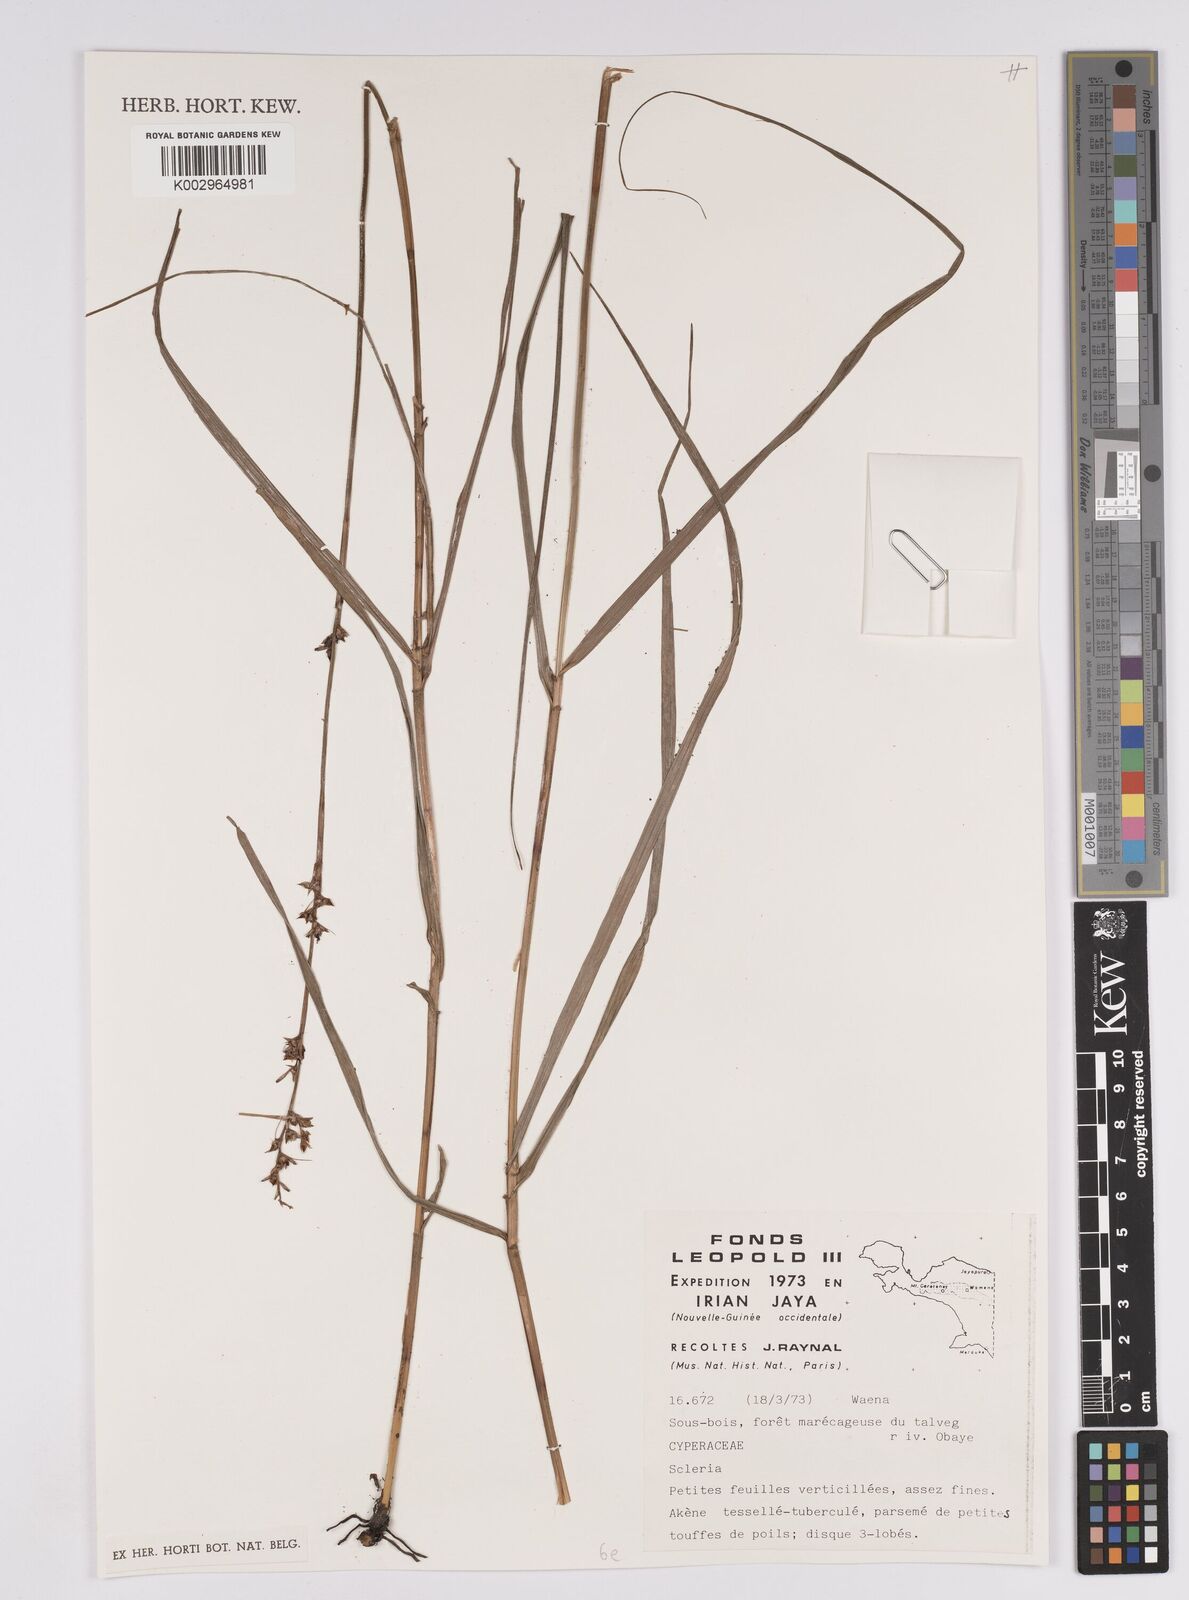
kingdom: Plantae
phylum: Tracheophyta
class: Liliopsida
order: Poales
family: Cyperaceae
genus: Scleria
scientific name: Scleria
